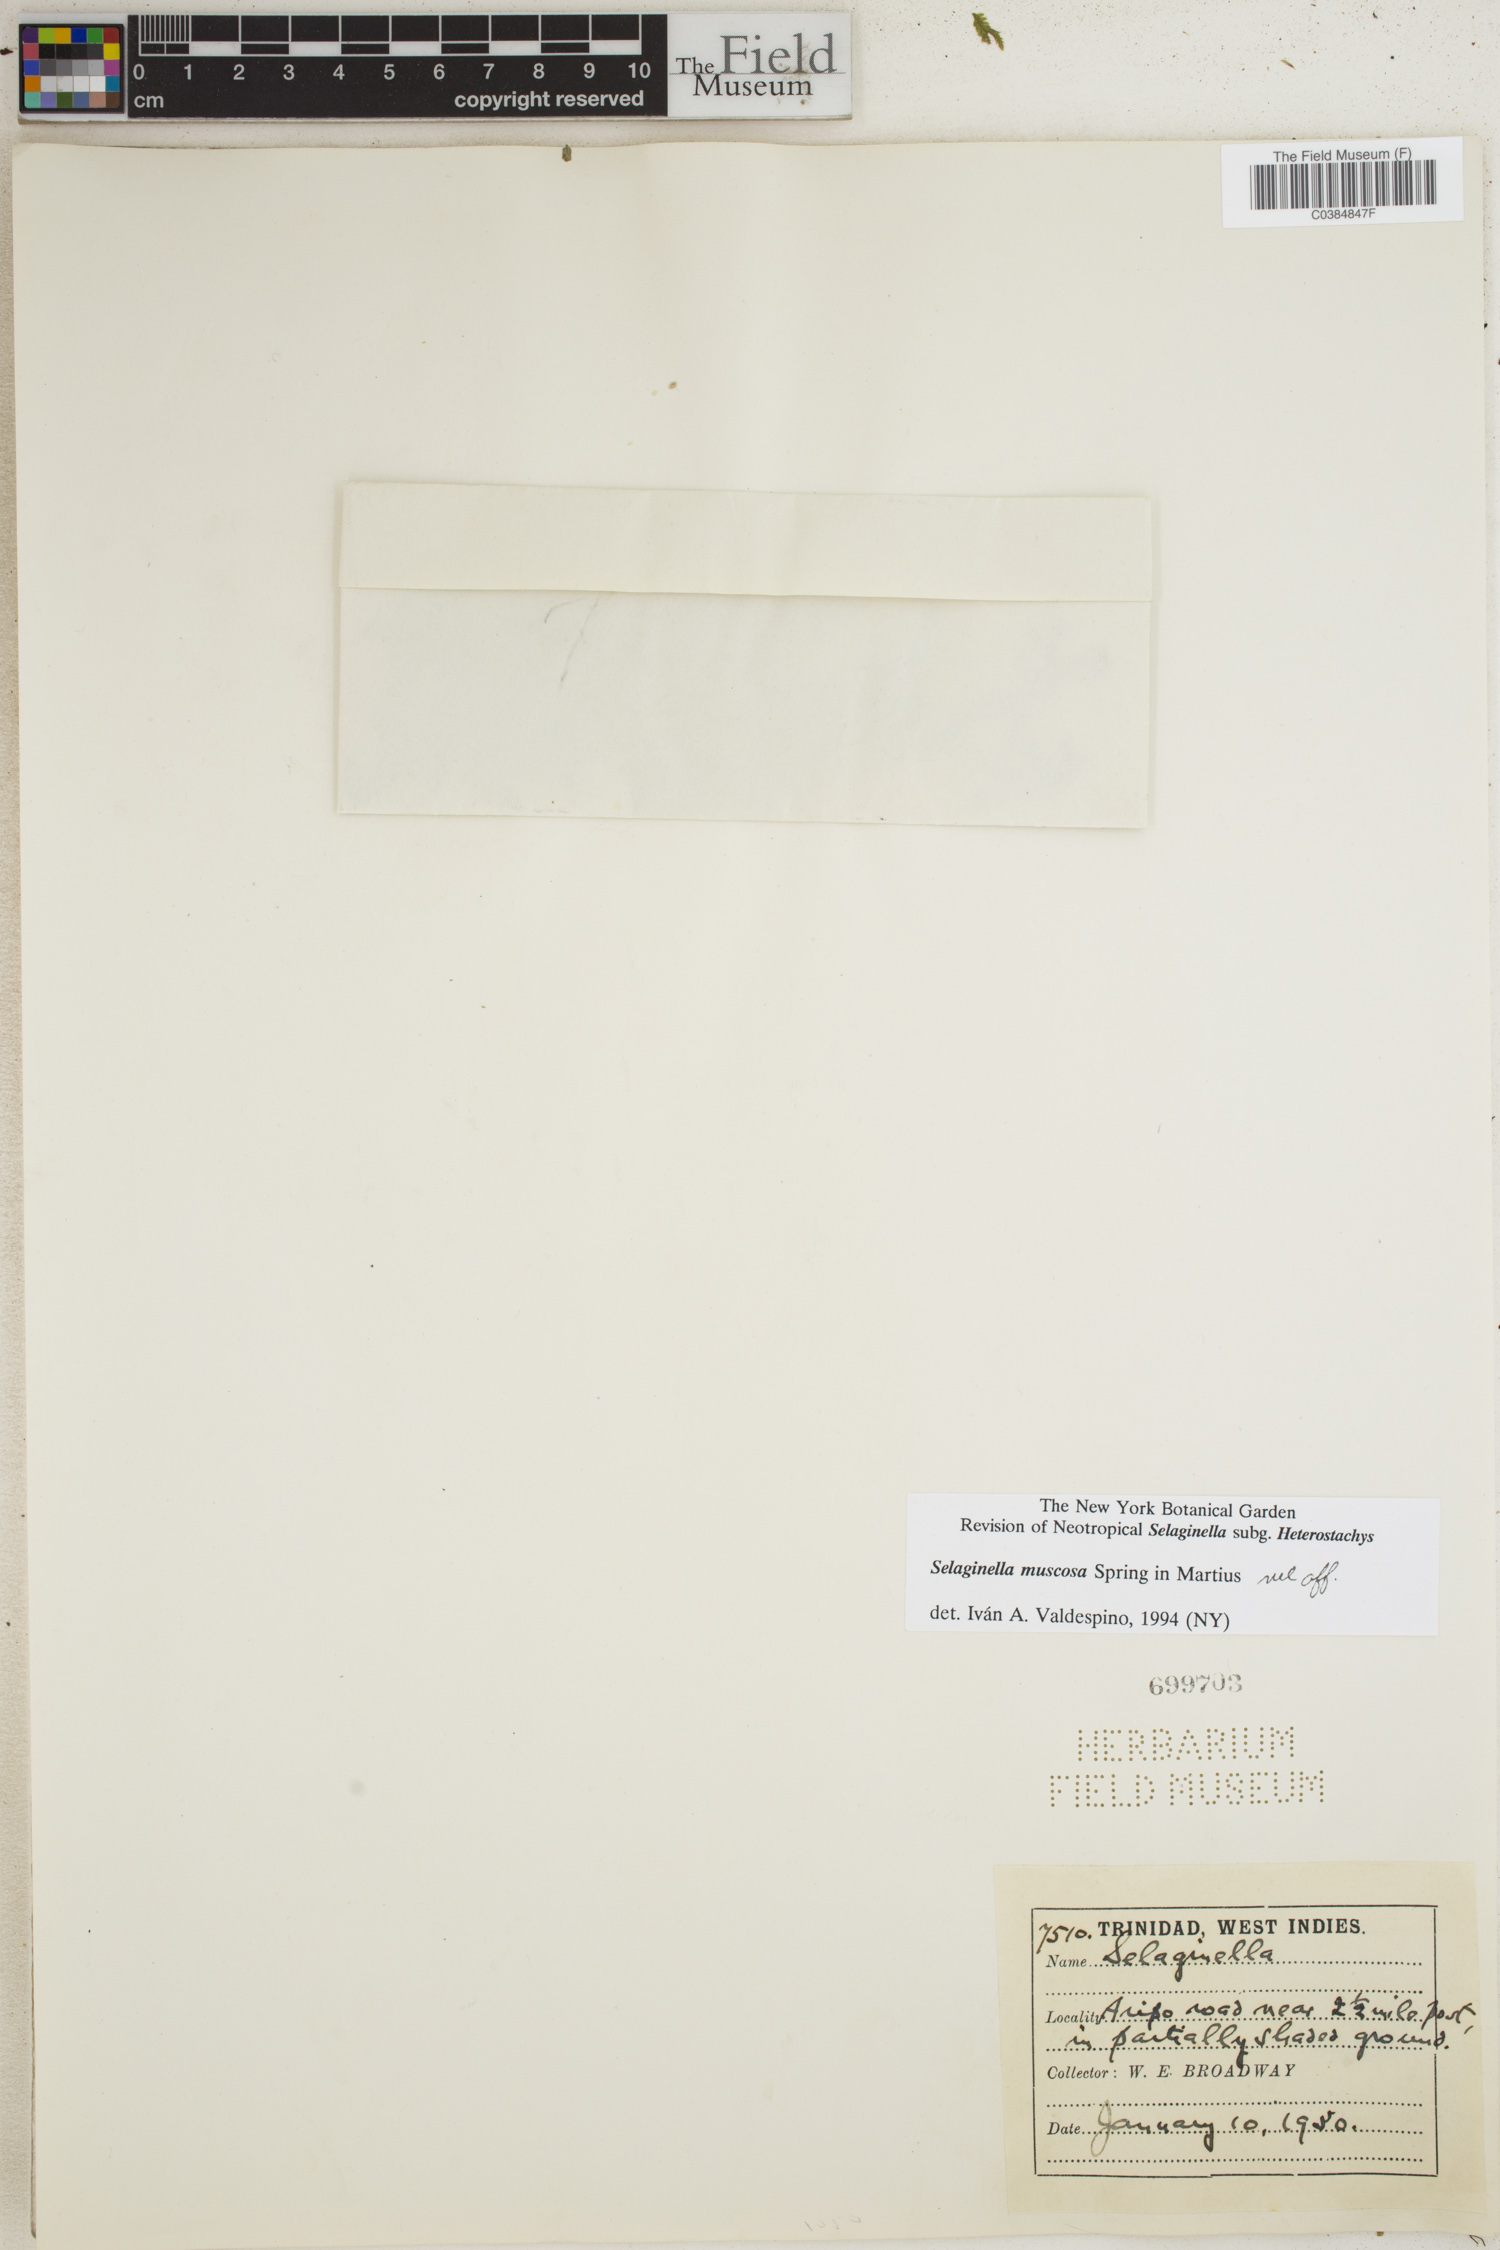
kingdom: Plantae
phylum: Tracheophyta
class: Lycopodiopsida
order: Selaginellales
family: Selaginellaceae
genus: Selaginella
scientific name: Selaginella muscosa
